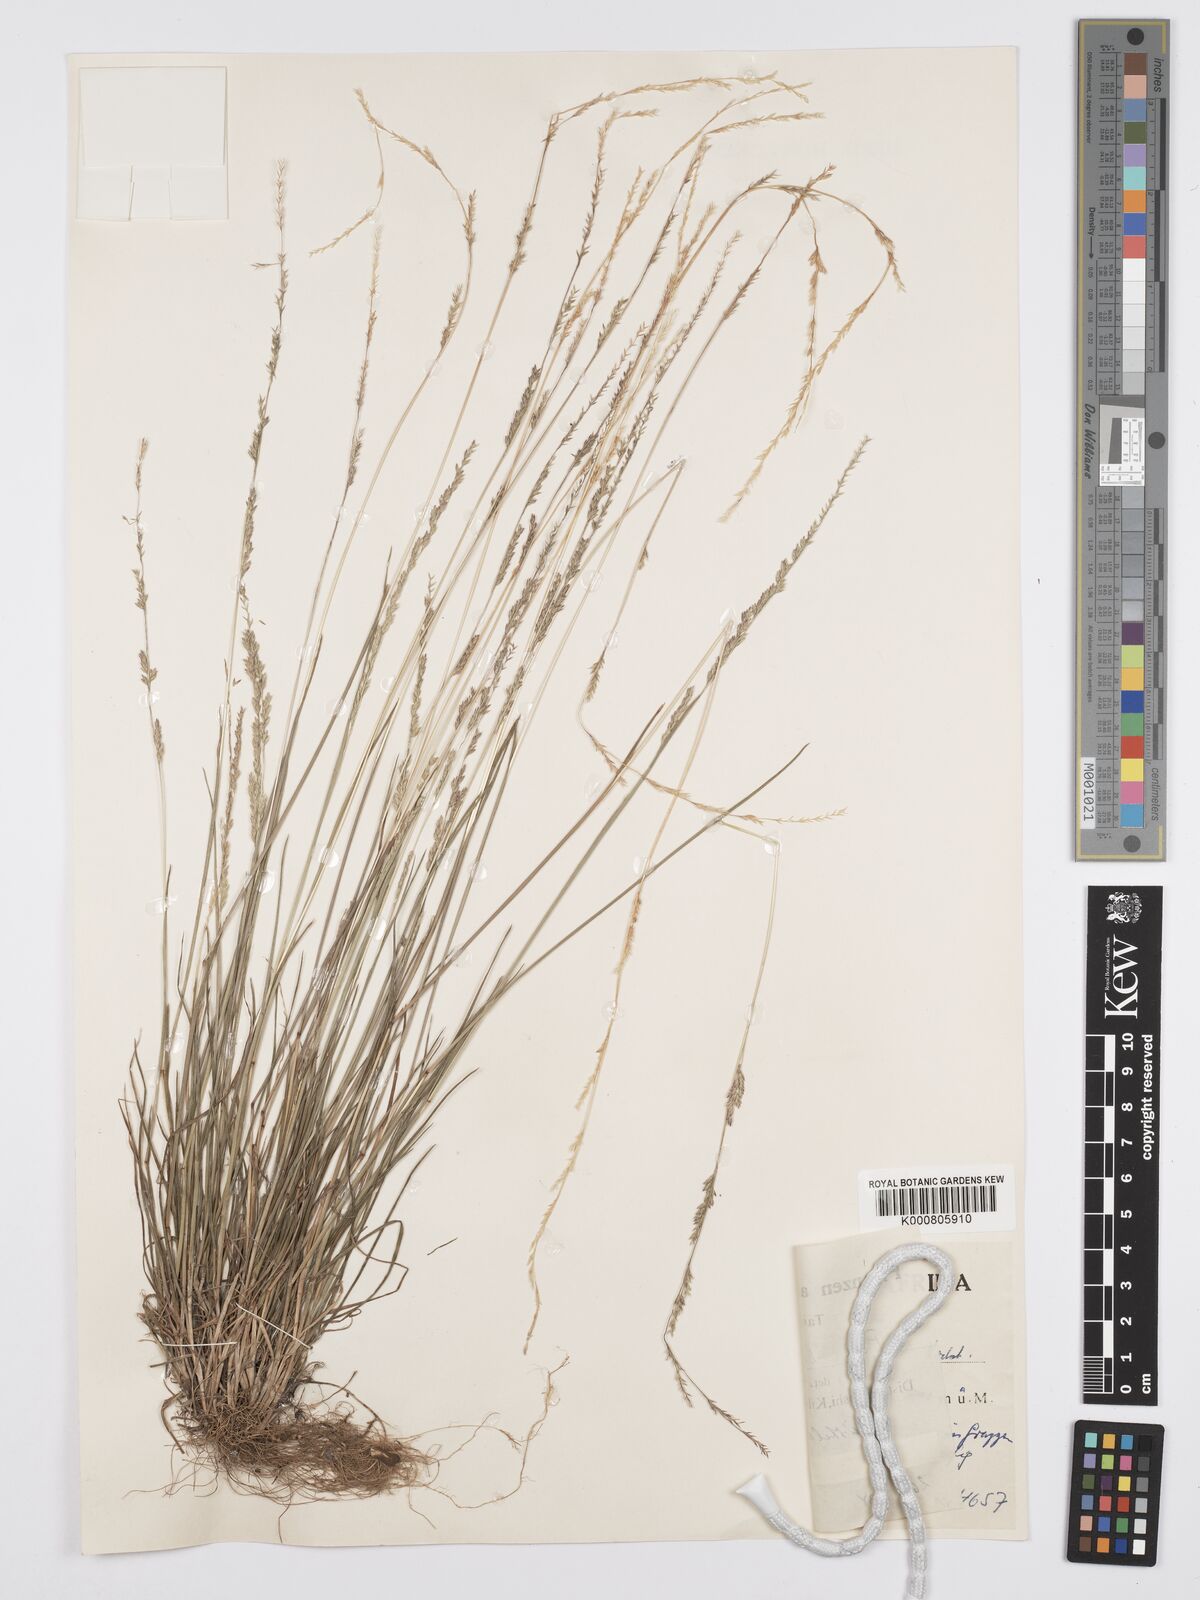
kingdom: Plantae
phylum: Tracheophyta
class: Liliopsida
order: Poales
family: Poaceae
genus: Poa
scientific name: Poa leptoclada
